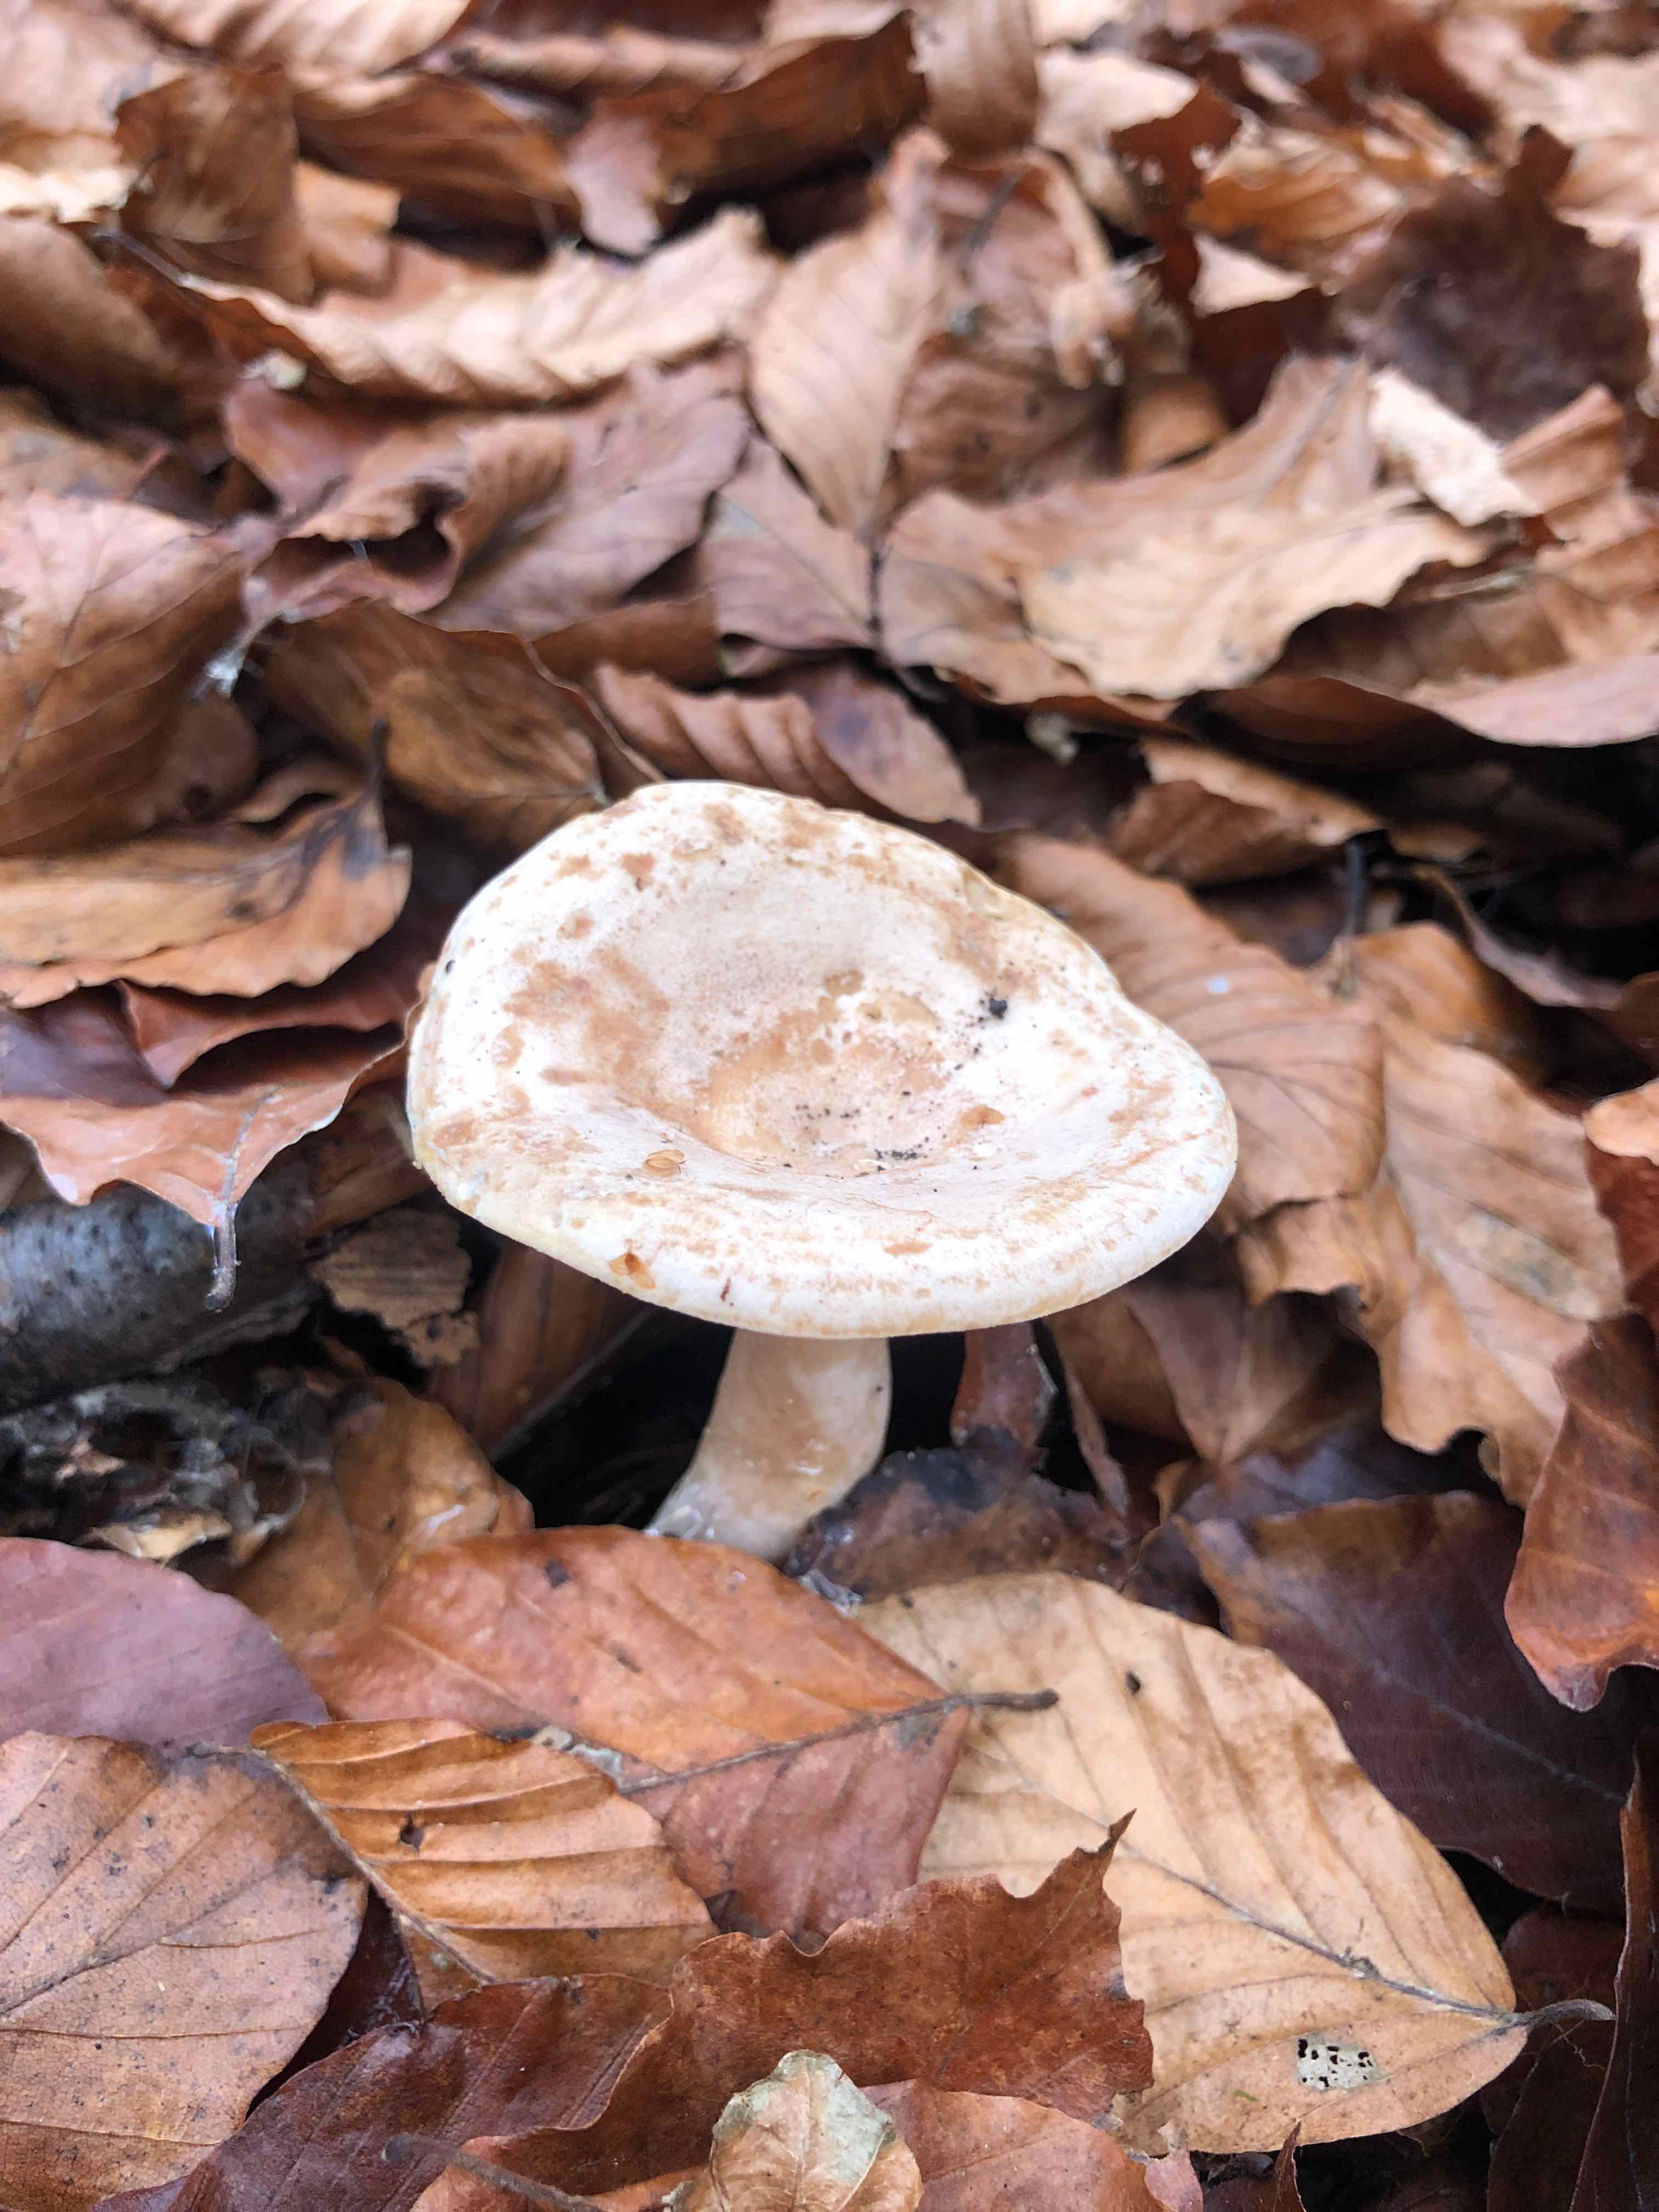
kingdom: Fungi
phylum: Basidiomycota
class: Agaricomycetes
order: Russulales
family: Russulaceae
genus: Lactarius
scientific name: Lactarius pallidus
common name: bleg mælkehat
